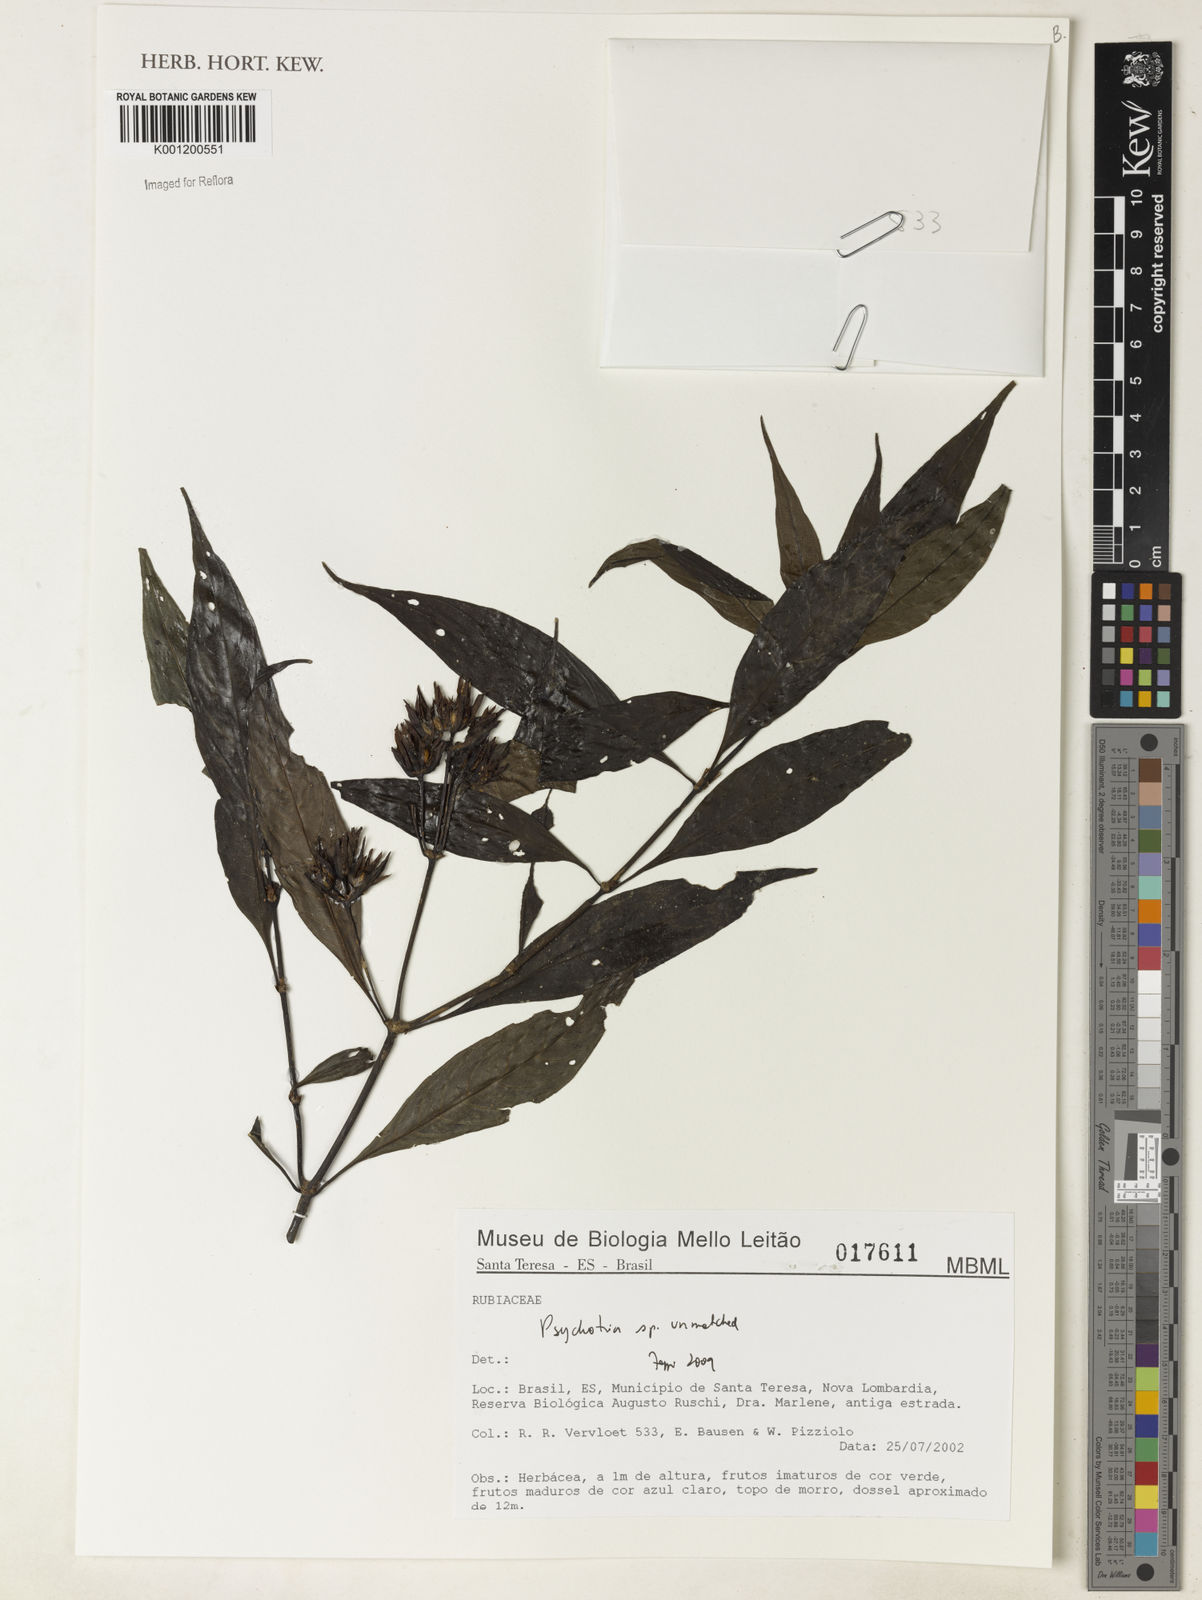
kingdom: Plantae
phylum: Tracheophyta
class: Magnoliopsida
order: Gentianales
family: Rubiaceae
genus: Psychotria
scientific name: Psychotria
